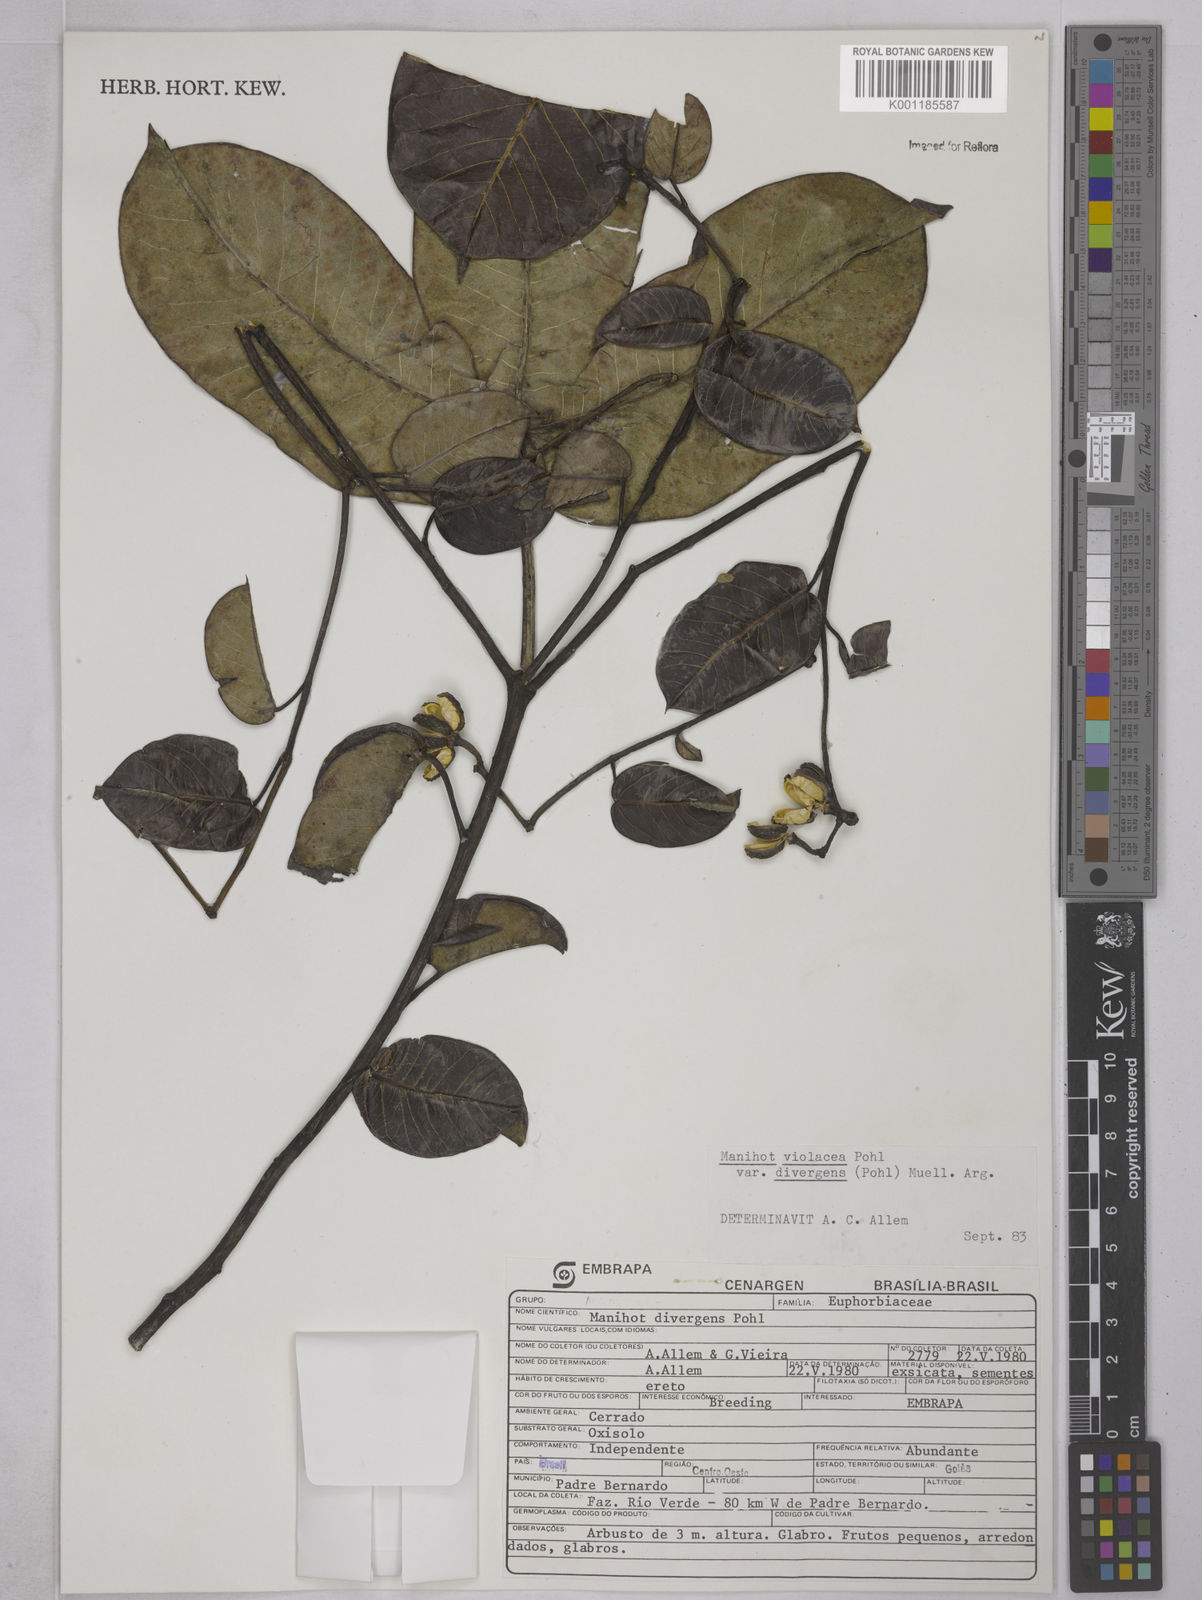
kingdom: Plantae
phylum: Tracheophyta
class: Magnoliopsida
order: Malpighiales
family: Euphorbiaceae
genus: Manihot
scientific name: Manihot divergens
